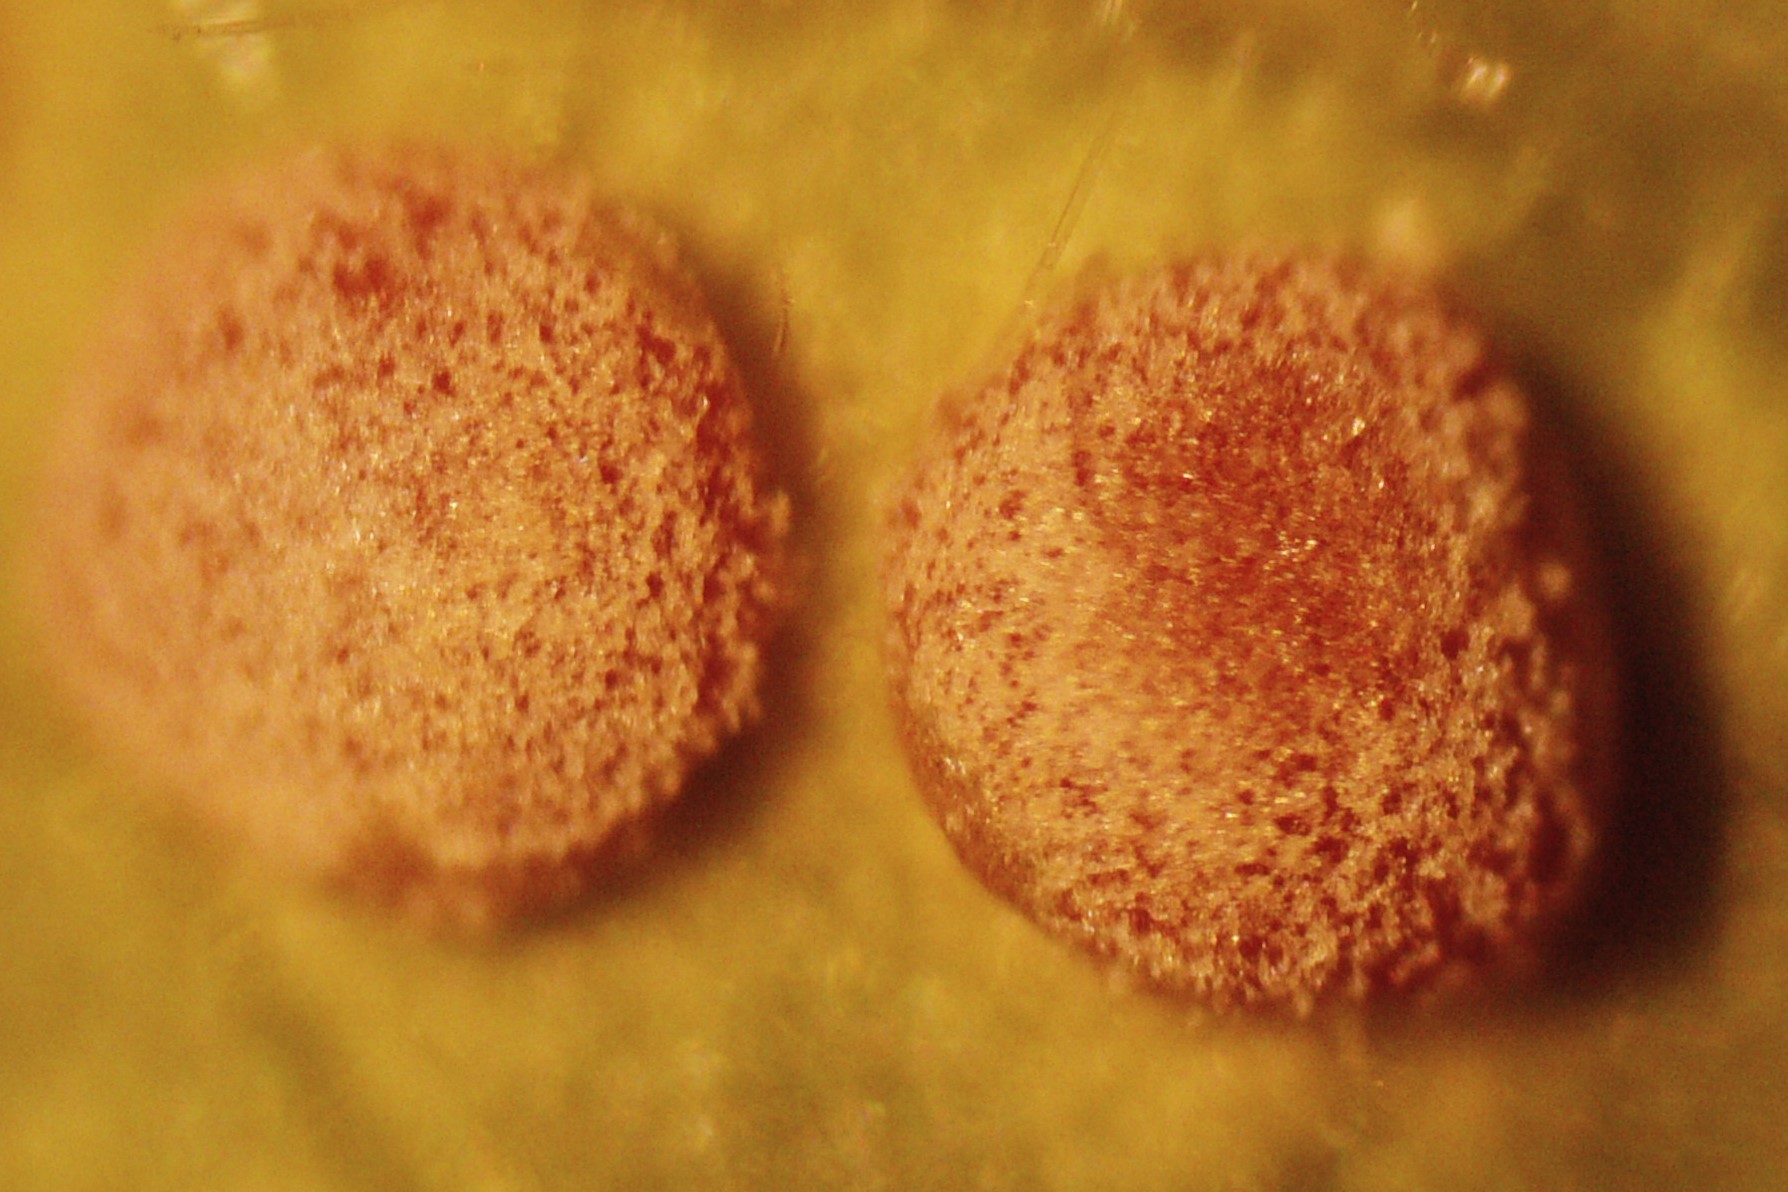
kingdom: Fungi
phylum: Basidiomycota
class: Pucciniomycetes
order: Pucciniales
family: Pucciniaceae
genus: Puccinia
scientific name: Puccinia malvacearum
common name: stokrose-tvecellerust
